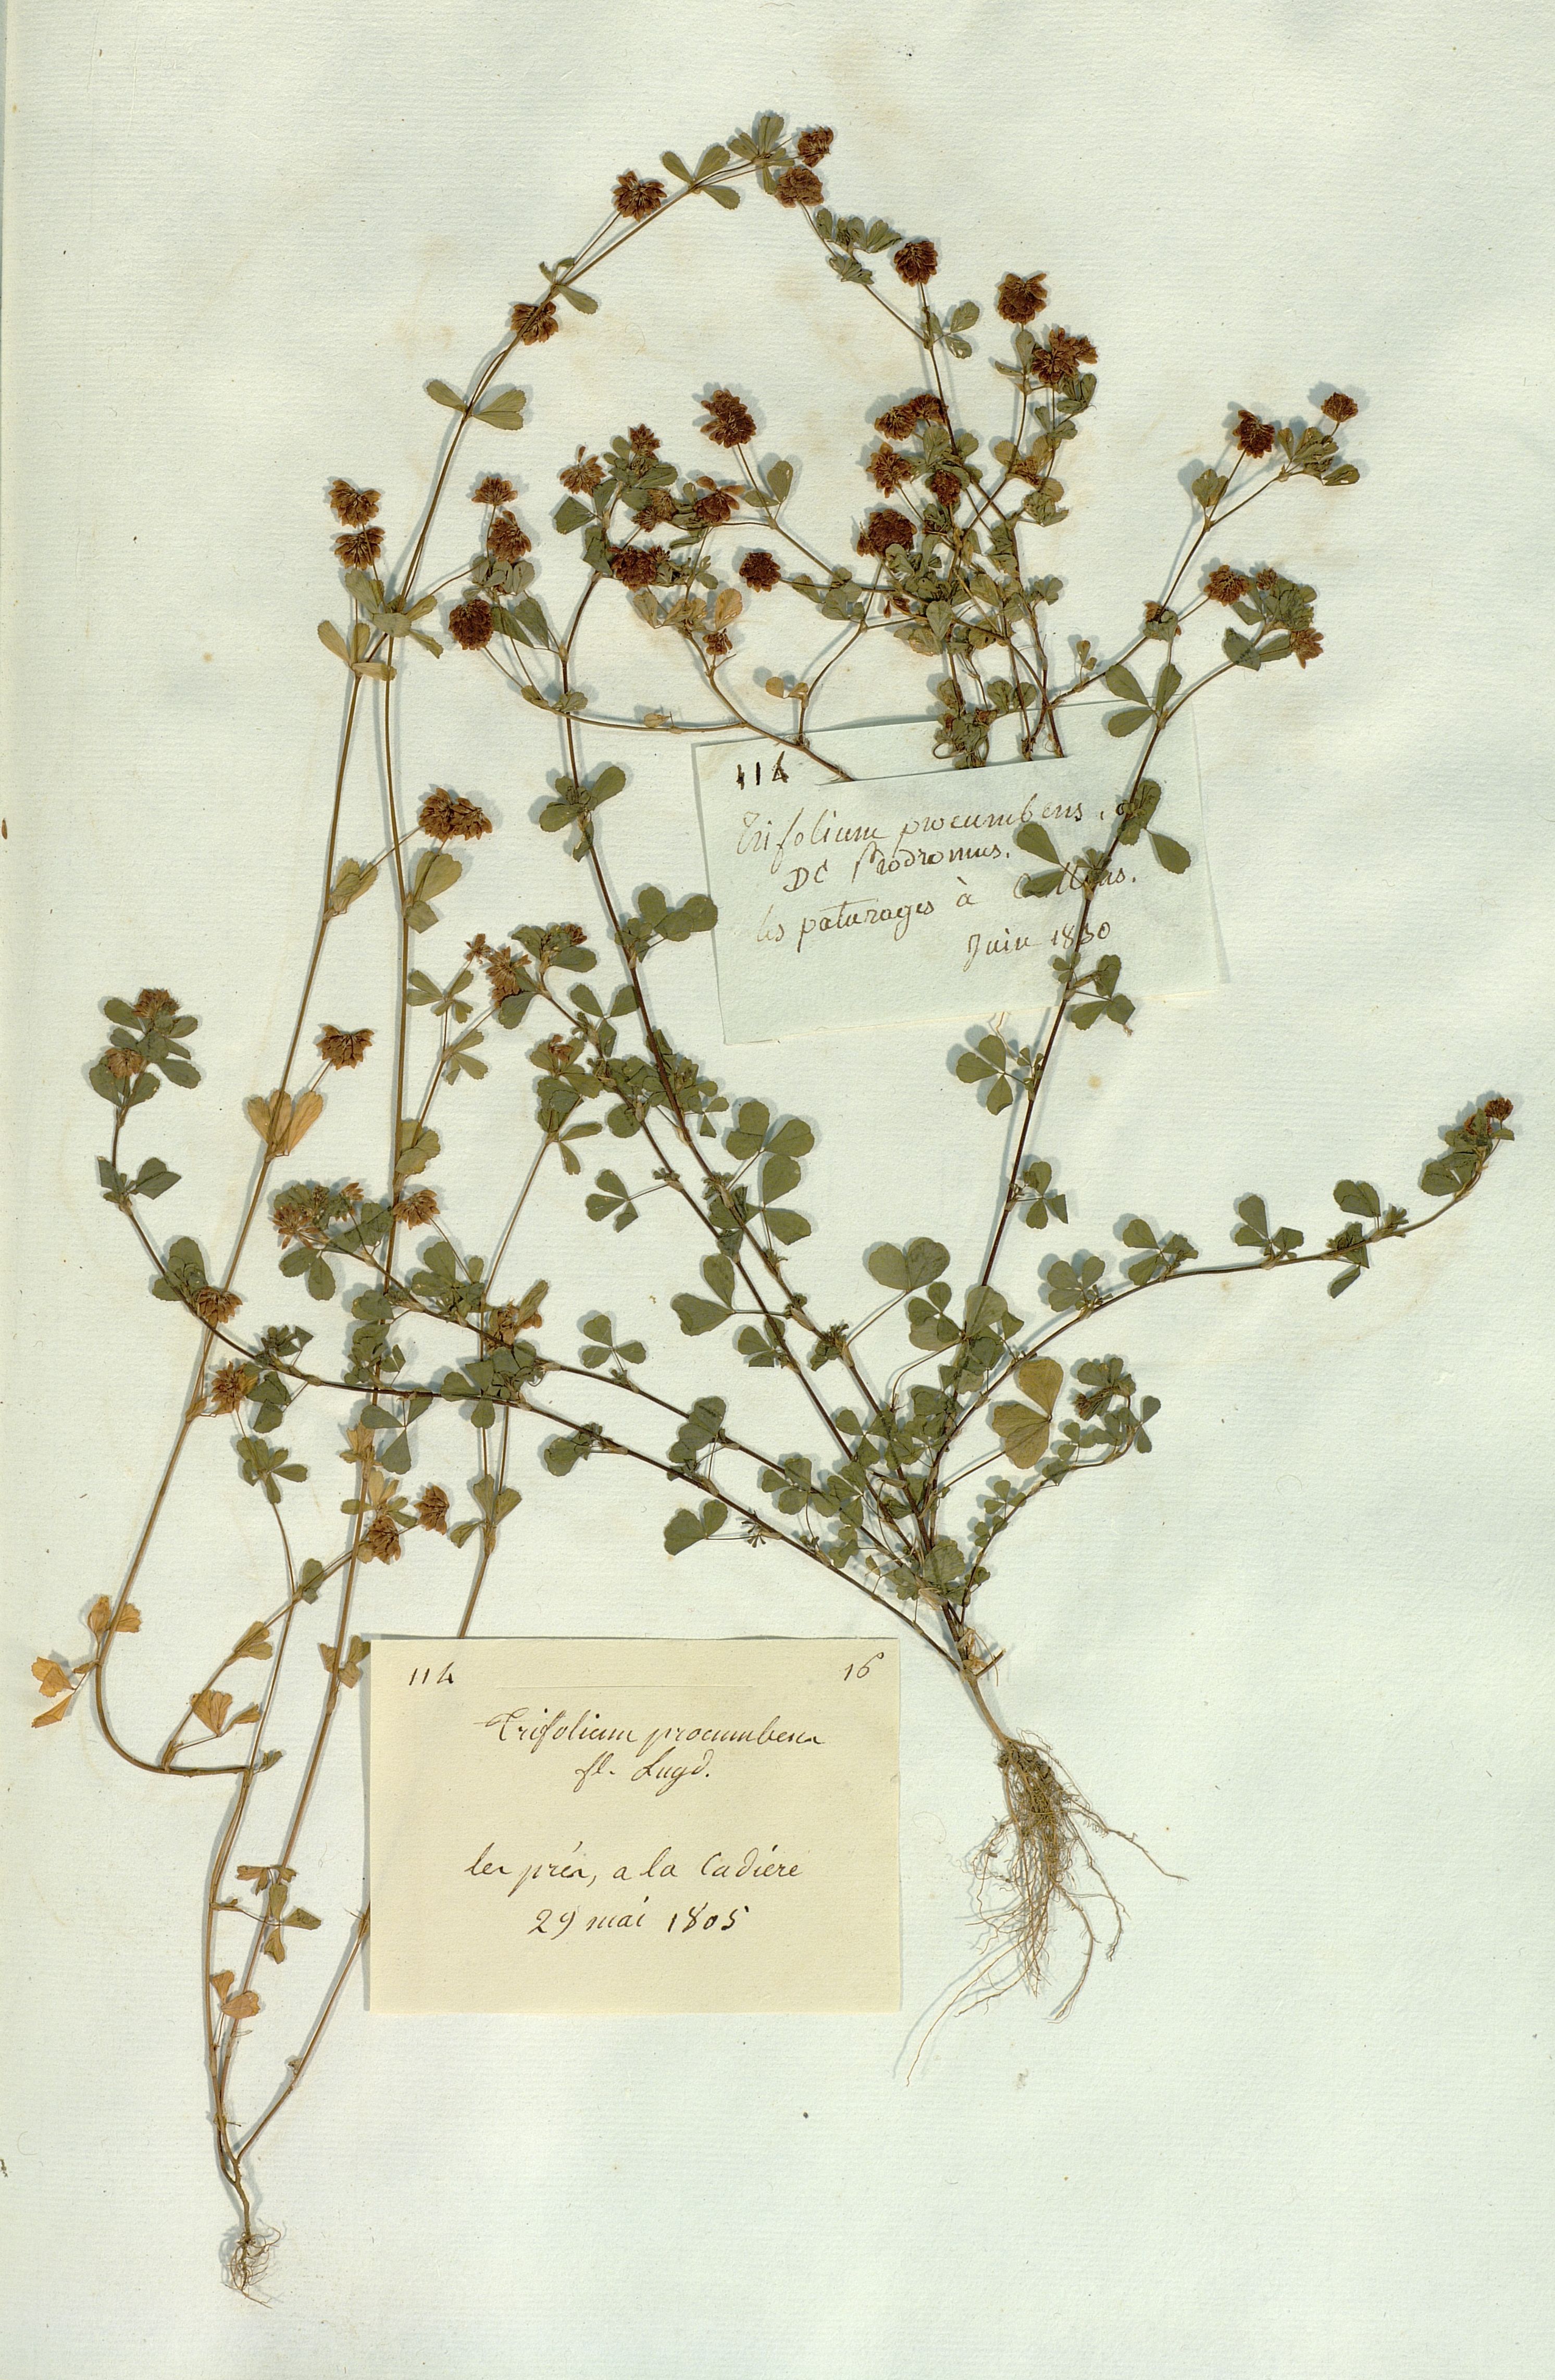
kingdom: Plantae
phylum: Tracheophyta
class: Magnoliopsida
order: Fabales
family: Fabaceae
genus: Trifolium
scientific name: Trifolium
